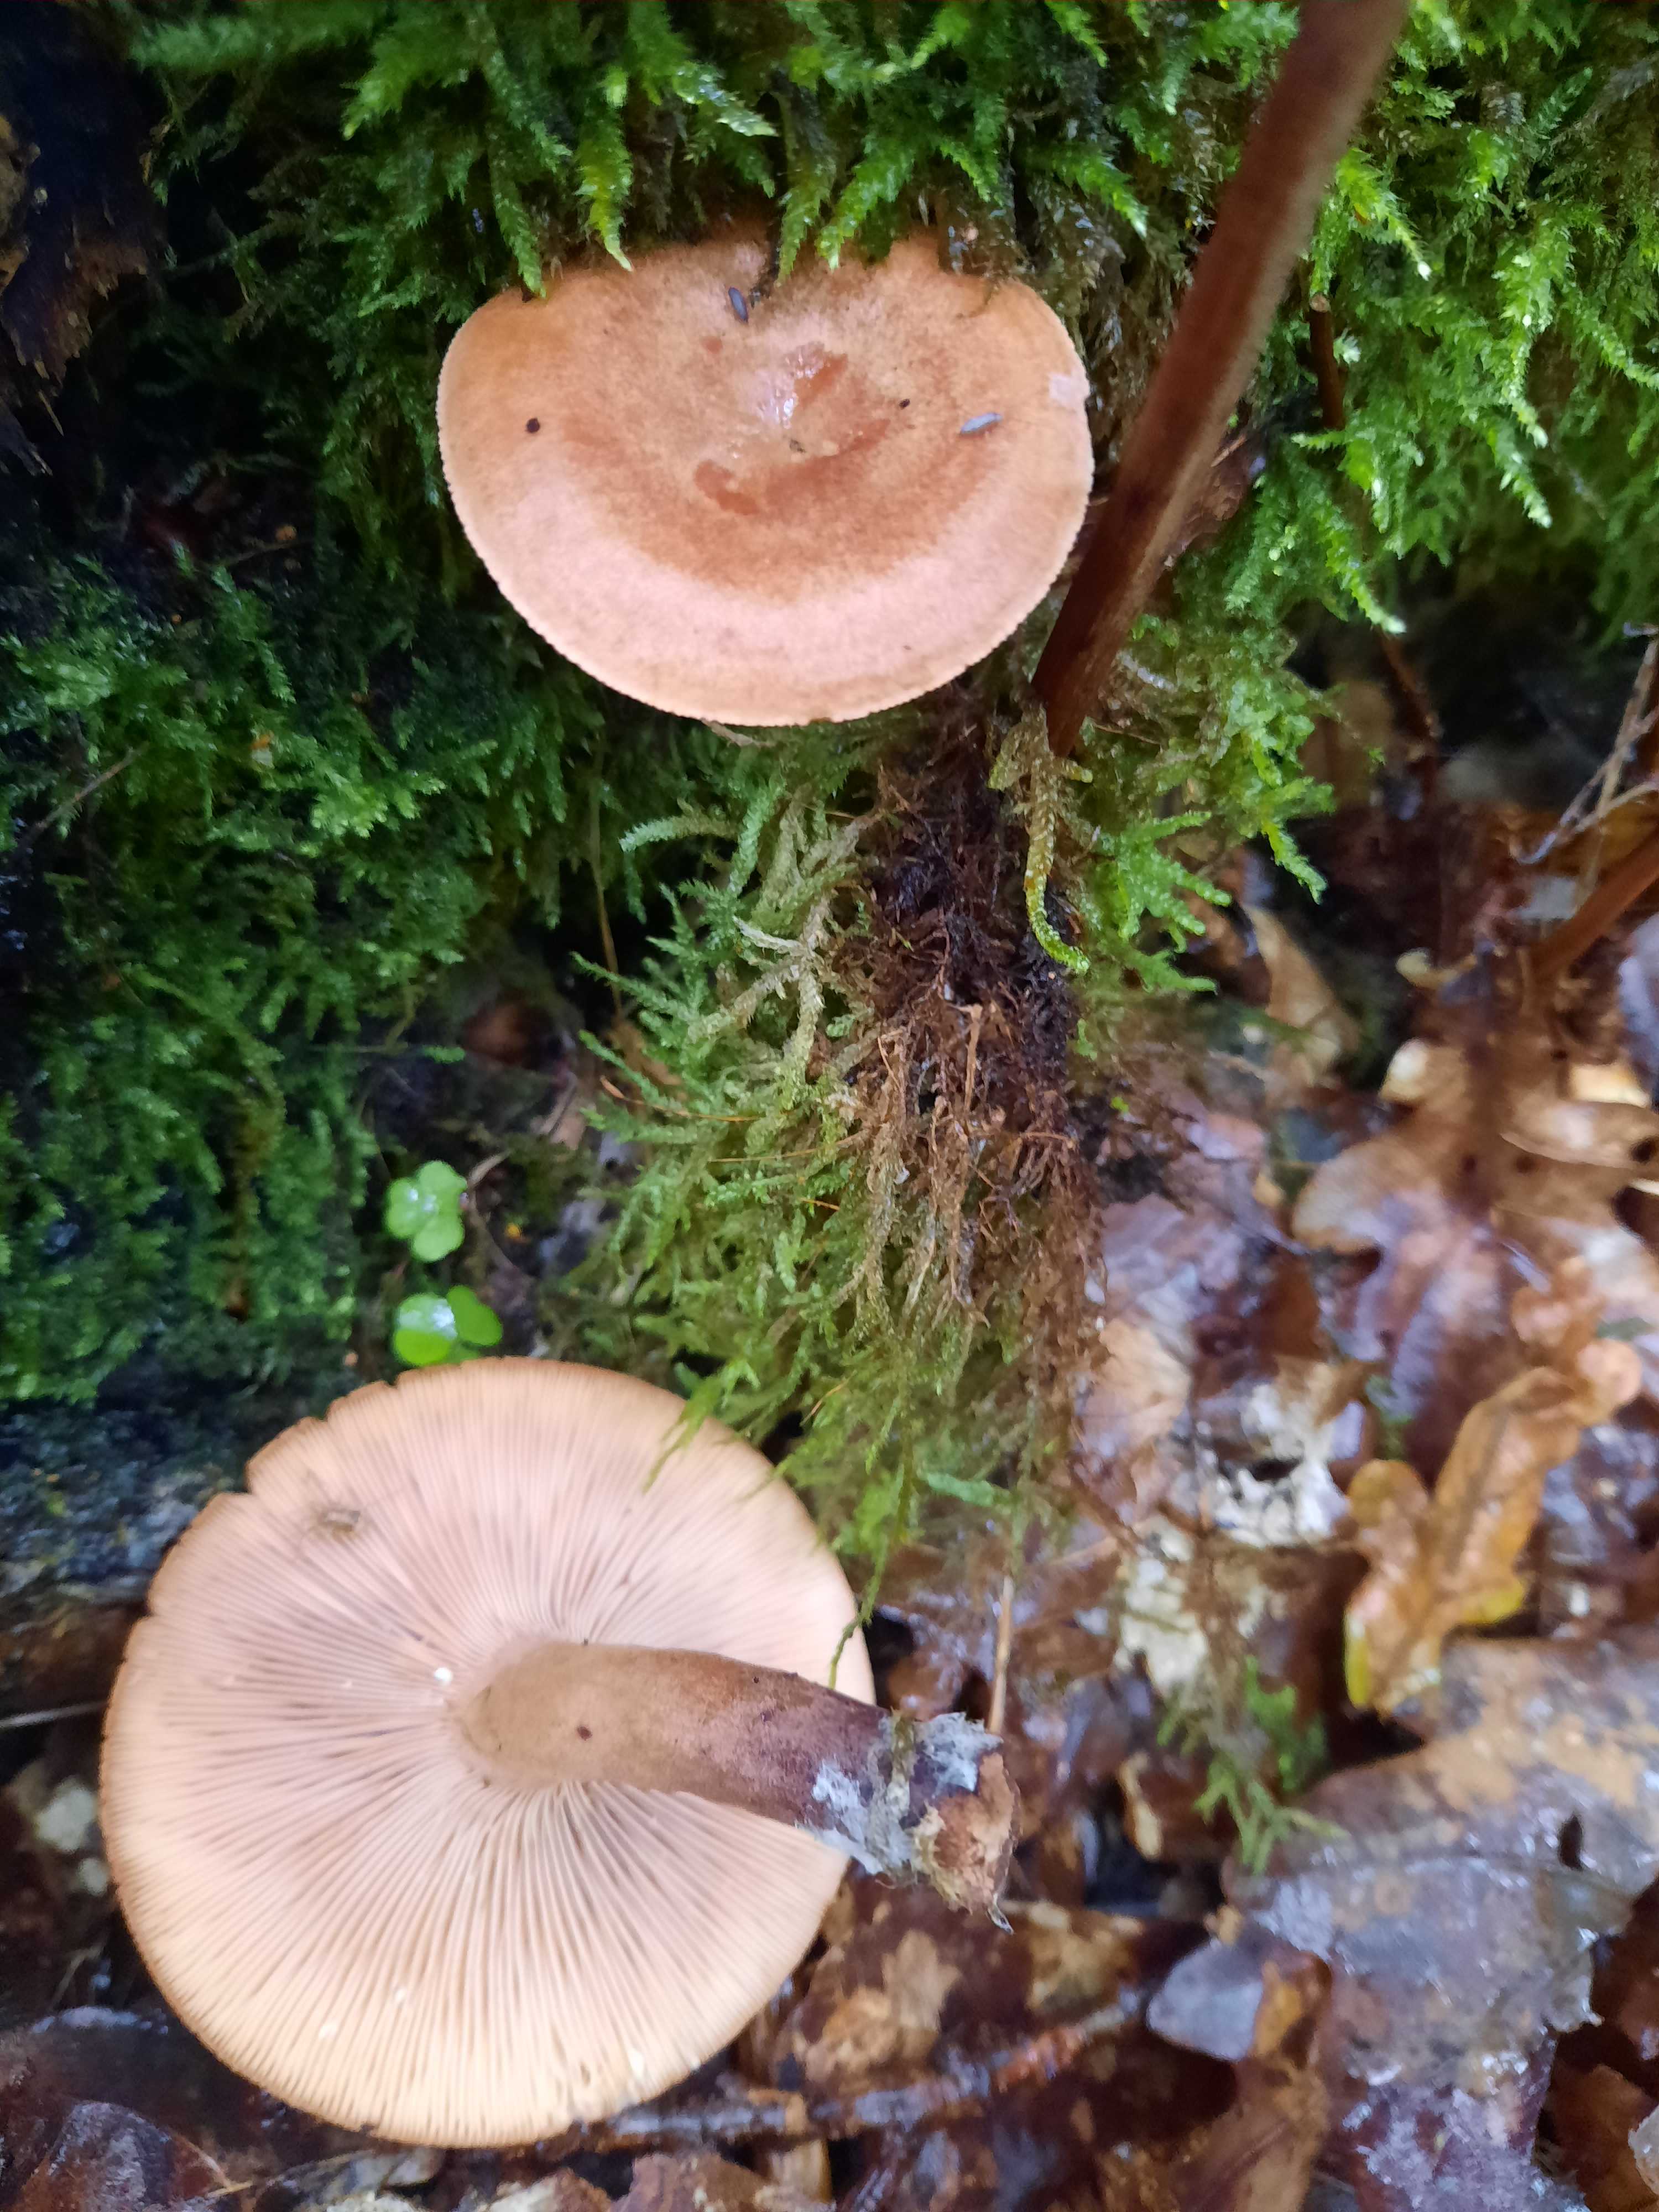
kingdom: Fungi
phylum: Basidiomycota
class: Agaricomycetes
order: Russulales
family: Russulaceae
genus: Lactarius
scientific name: Lactarius quietus
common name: ege-mælkehat
